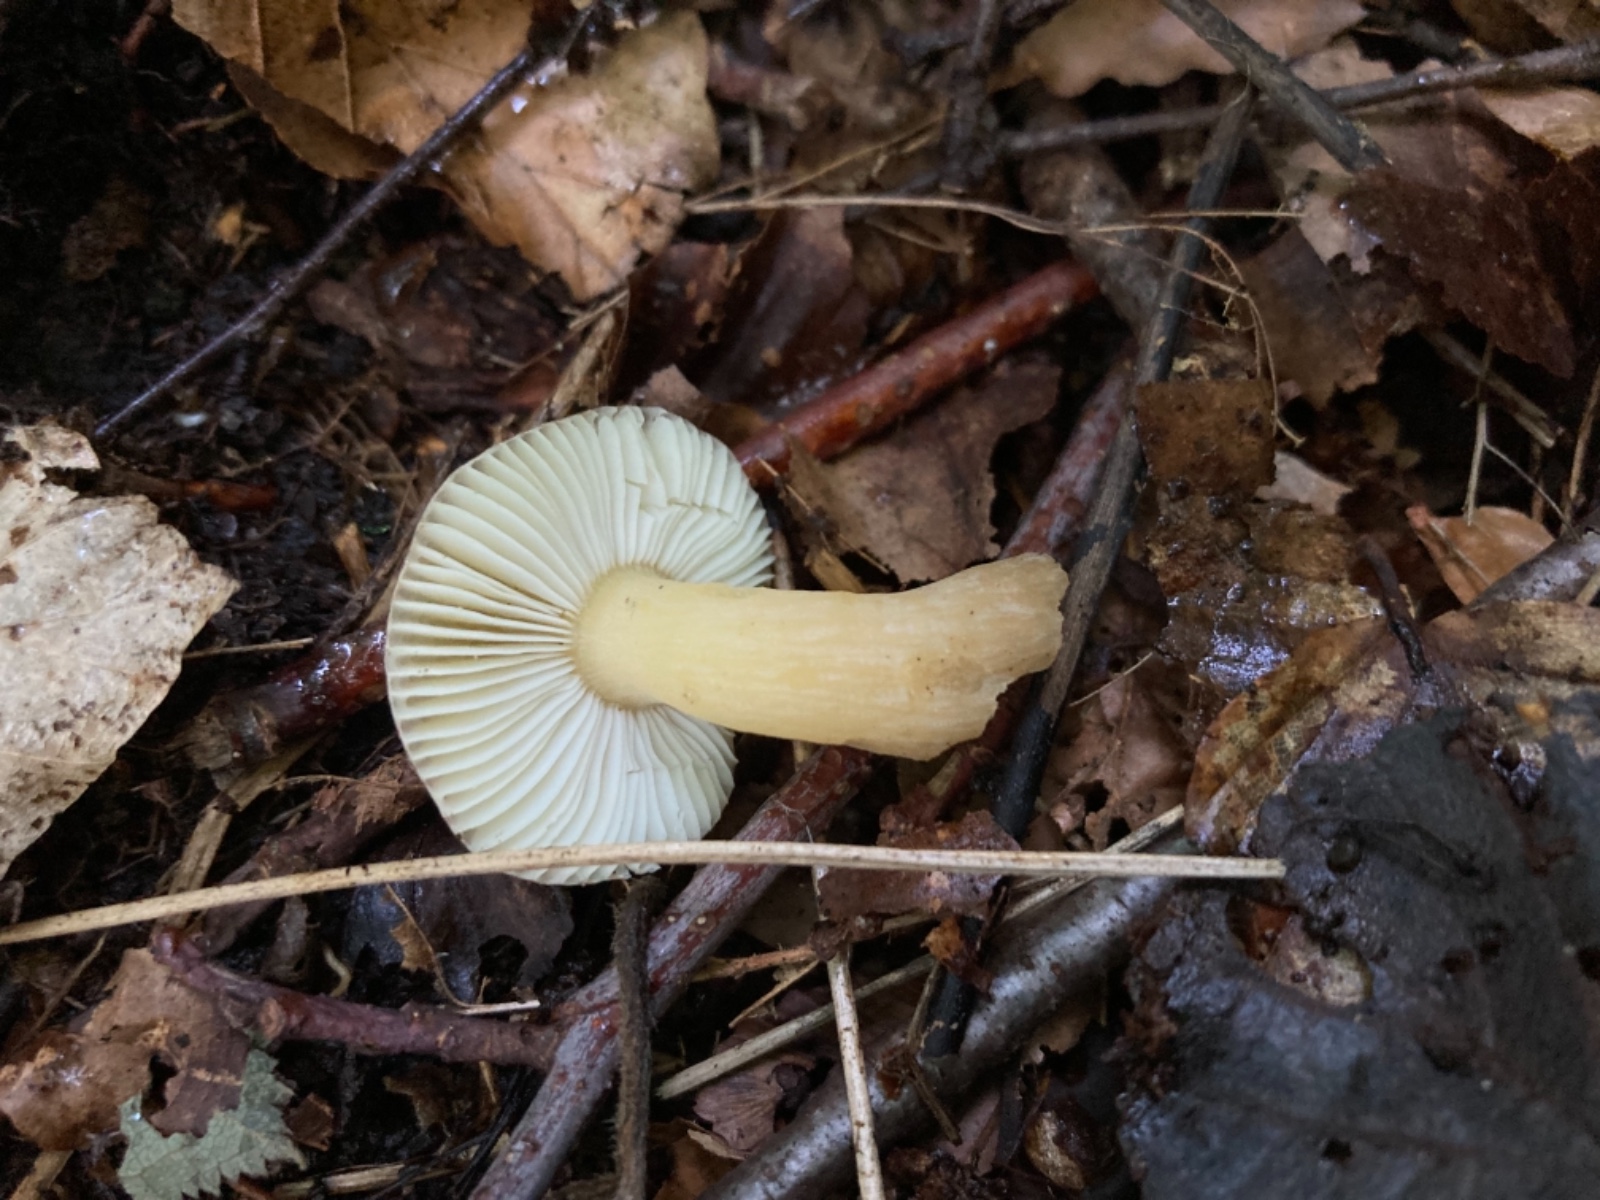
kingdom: Fungi
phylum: Basidiomycota
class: Agaricomycetes
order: Russulales
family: Russulaceae
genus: Russula
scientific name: Russula alnetorum
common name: elle-skørhat
